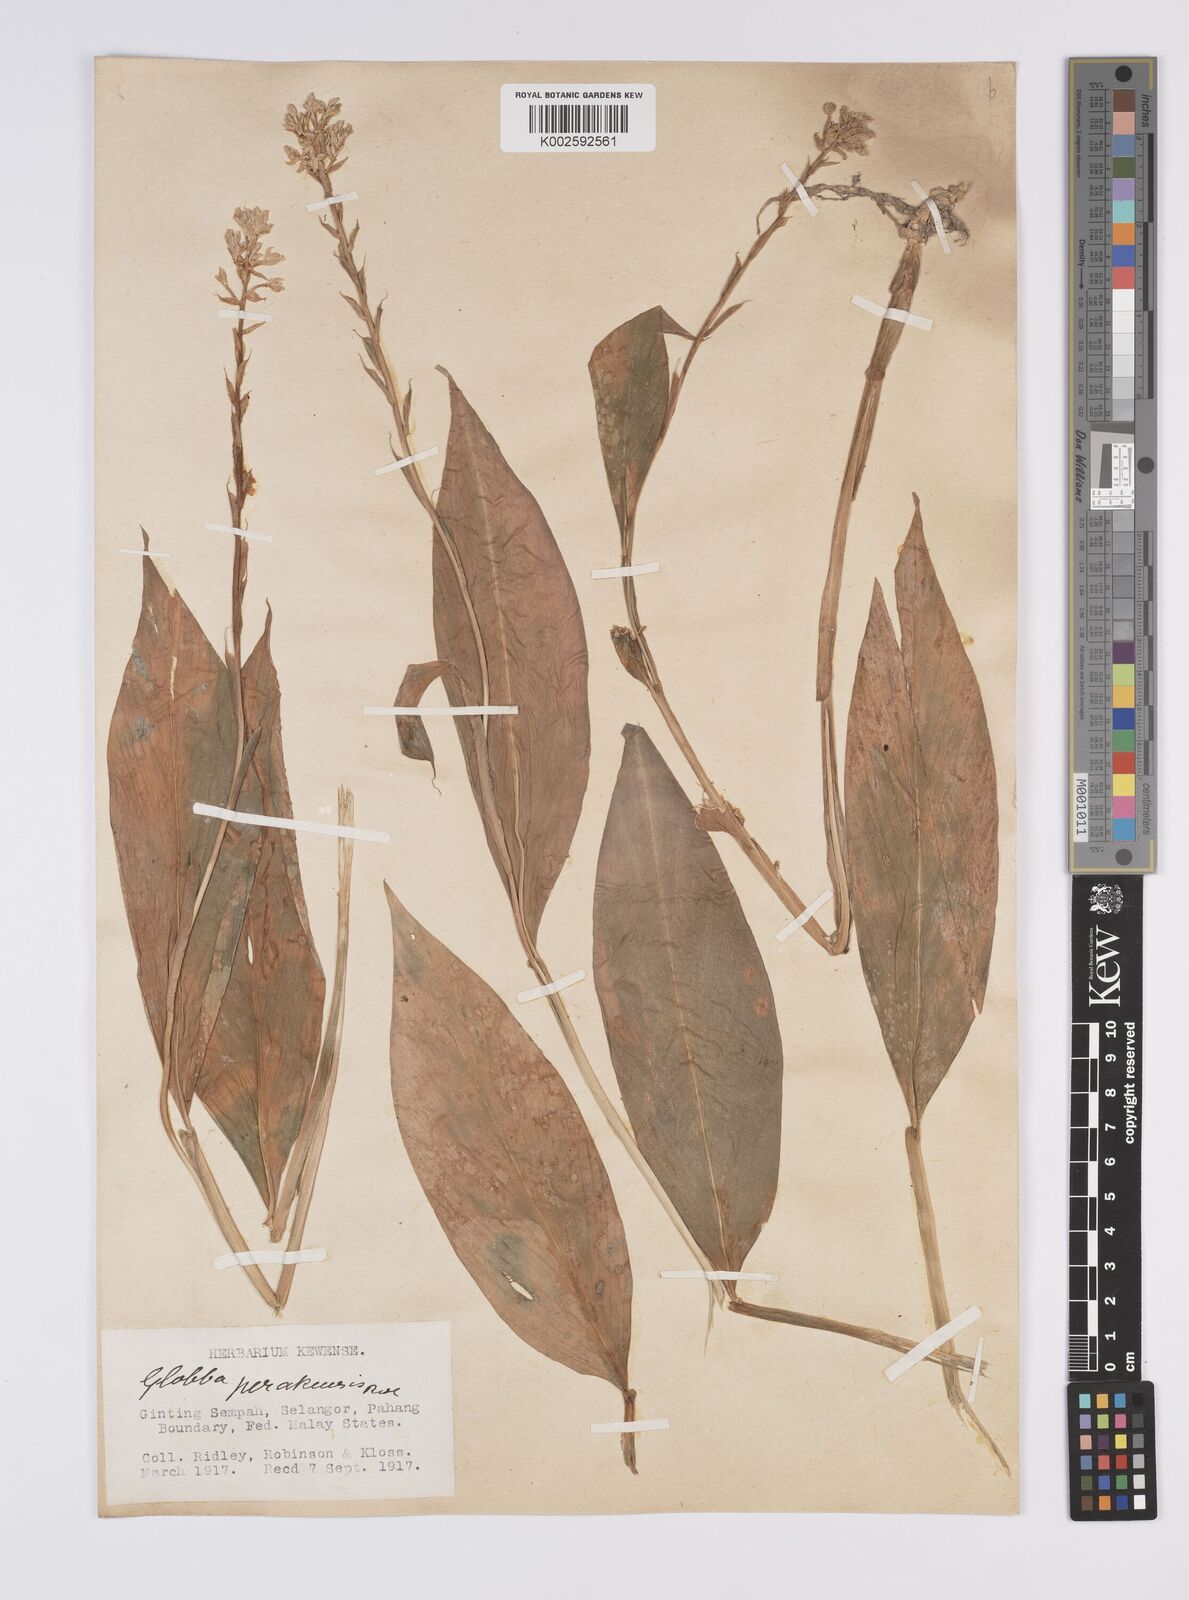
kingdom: Plantae
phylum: Tracheophyta
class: Liliopsida
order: Zingiberales
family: Zingiberaceae
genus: Globba
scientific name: Globba variabilis
